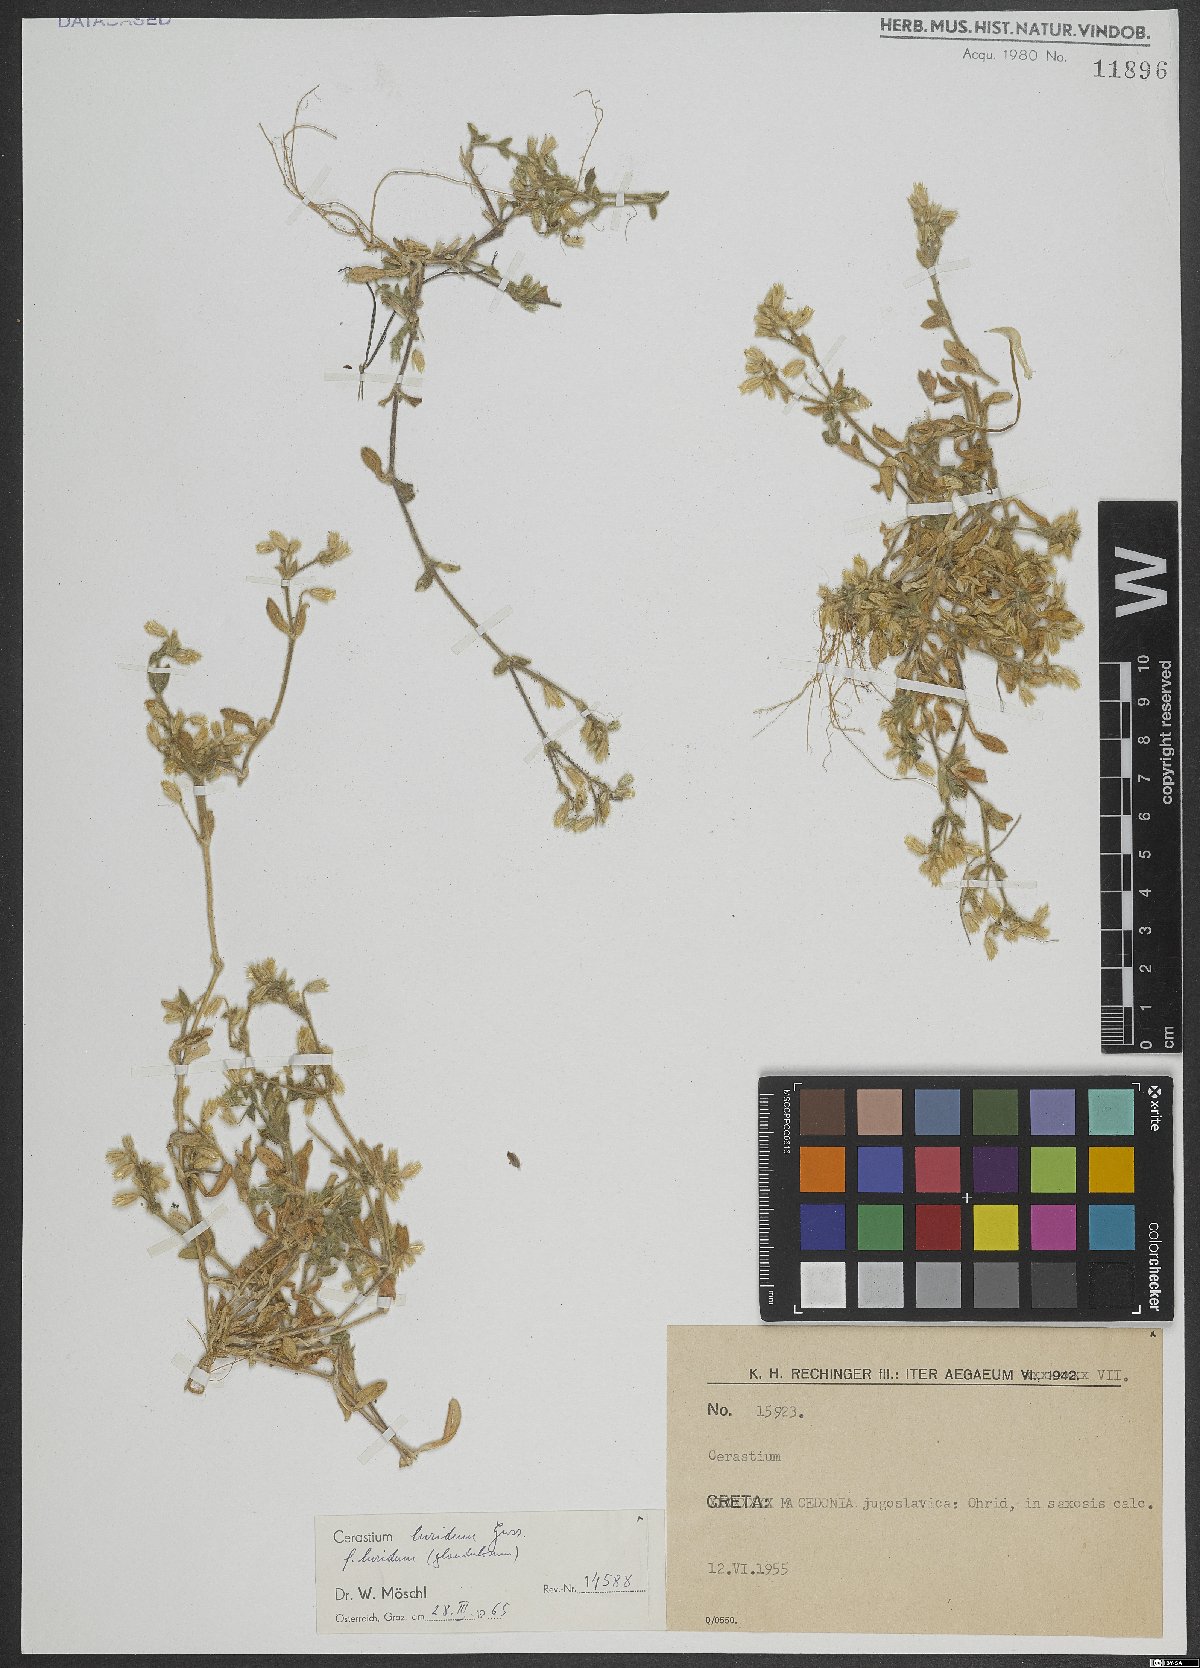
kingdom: Plantae
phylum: Tracheophyta
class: Magnoliopsida
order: Caryophyllales
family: Caryophyllaceae
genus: Cerastium
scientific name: Cerastium brachypetalum
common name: Grey mouse-ear
